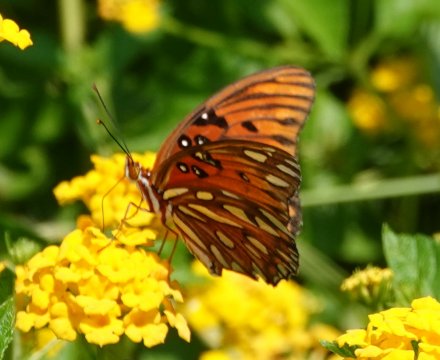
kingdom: Animalia
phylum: Arthropoda
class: Insecta
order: Lepidoptera
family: Nymphalidae
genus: Dione
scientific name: Dione vanillae
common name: Gulf Fritillary
